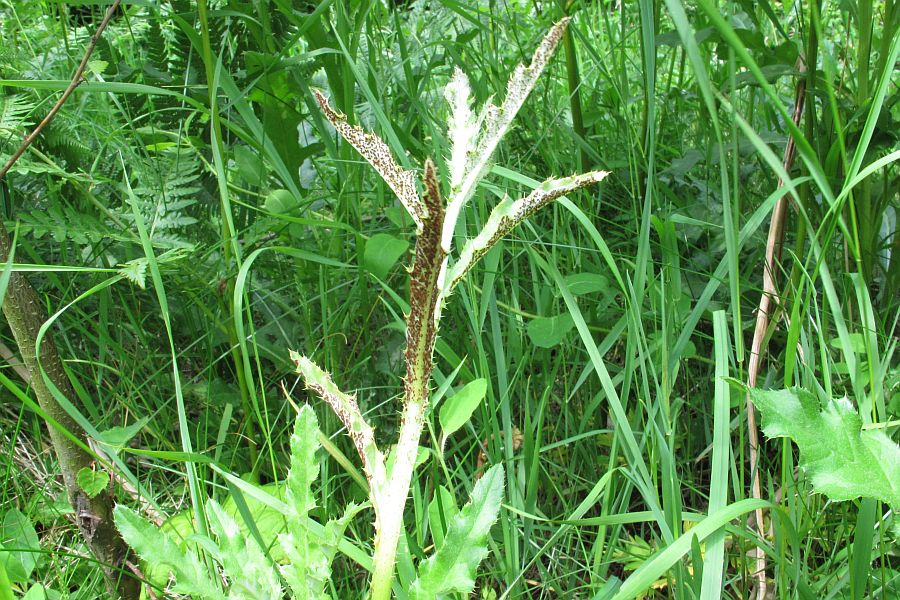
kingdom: Fungi
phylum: Basidiomycota
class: Pucciniomycetes
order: Pucciniales
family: Pucciniaceae
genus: Puccinia
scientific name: Puccinia suaveolens
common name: tidsel-tvecellerust
